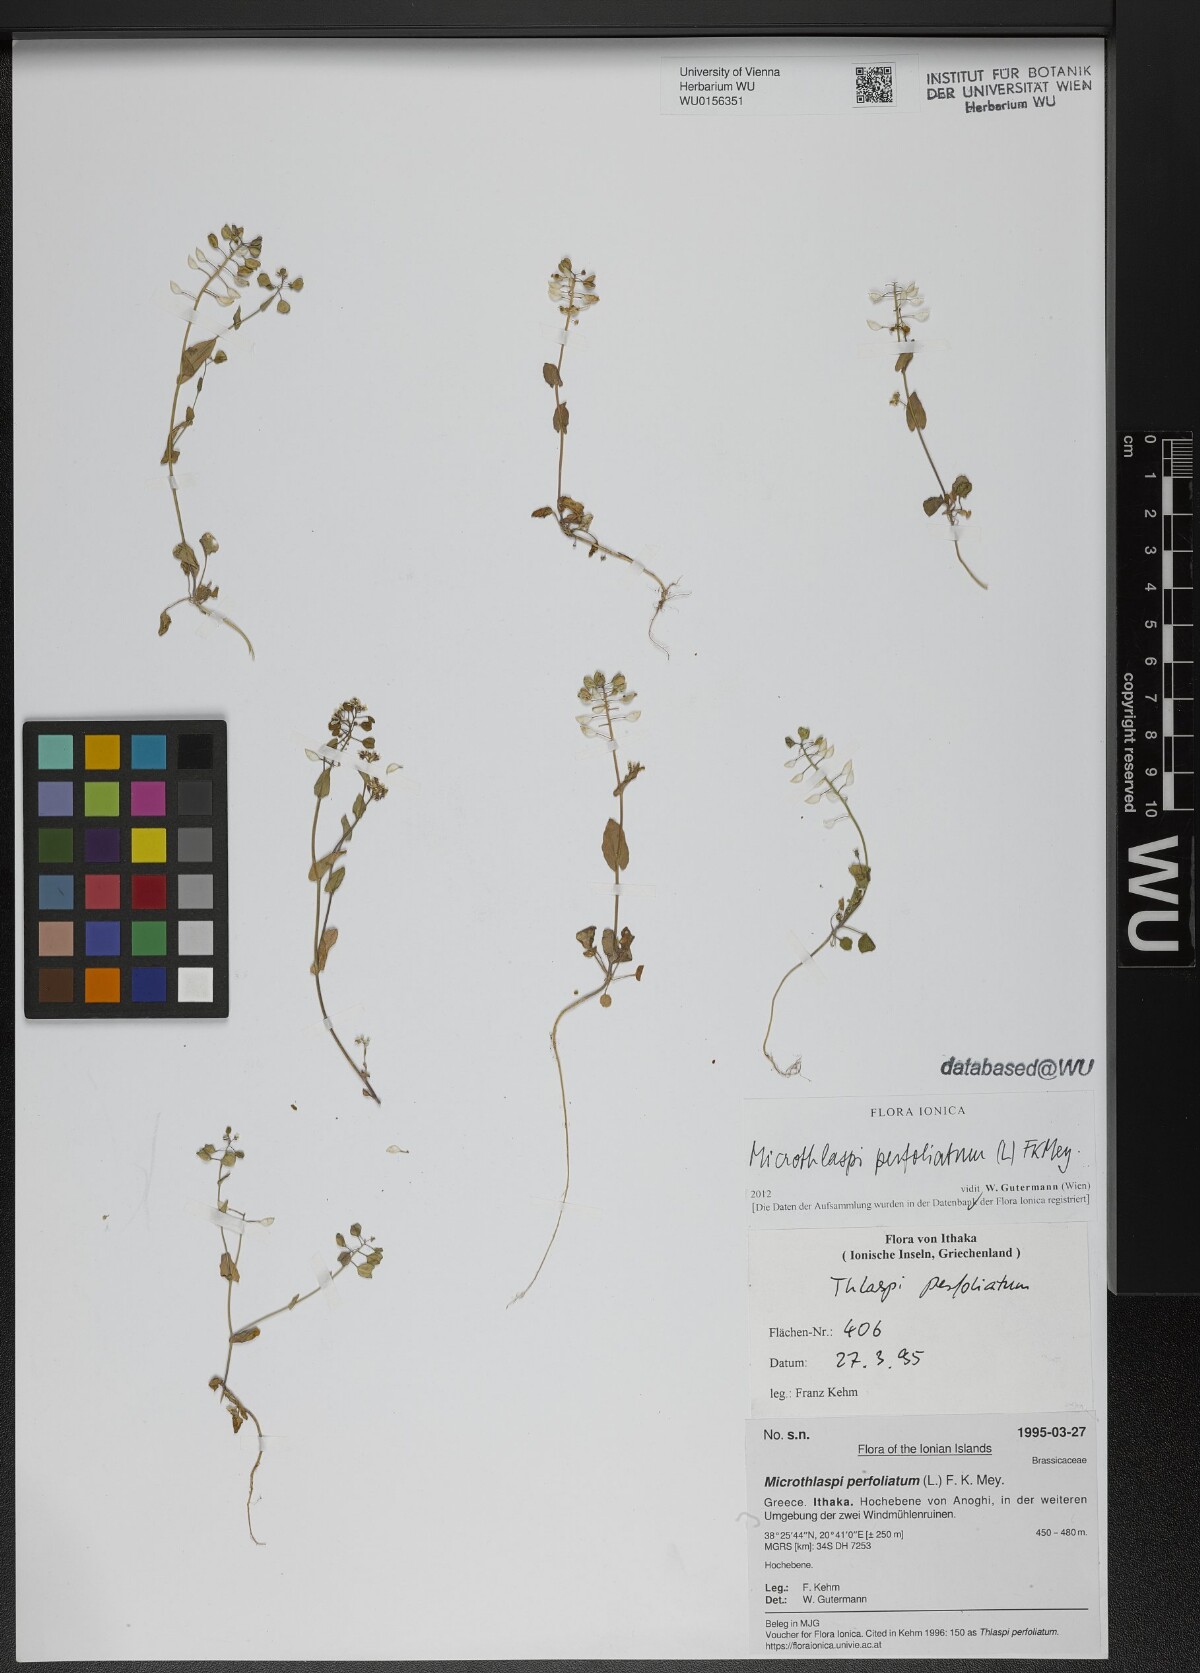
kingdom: Plantae
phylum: Tracheophyta
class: Magnoliopsida
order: Brassicales
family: Brassicaceae
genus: Noccaea
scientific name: Noccaea perfoliata
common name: Perfoliate pennycress
